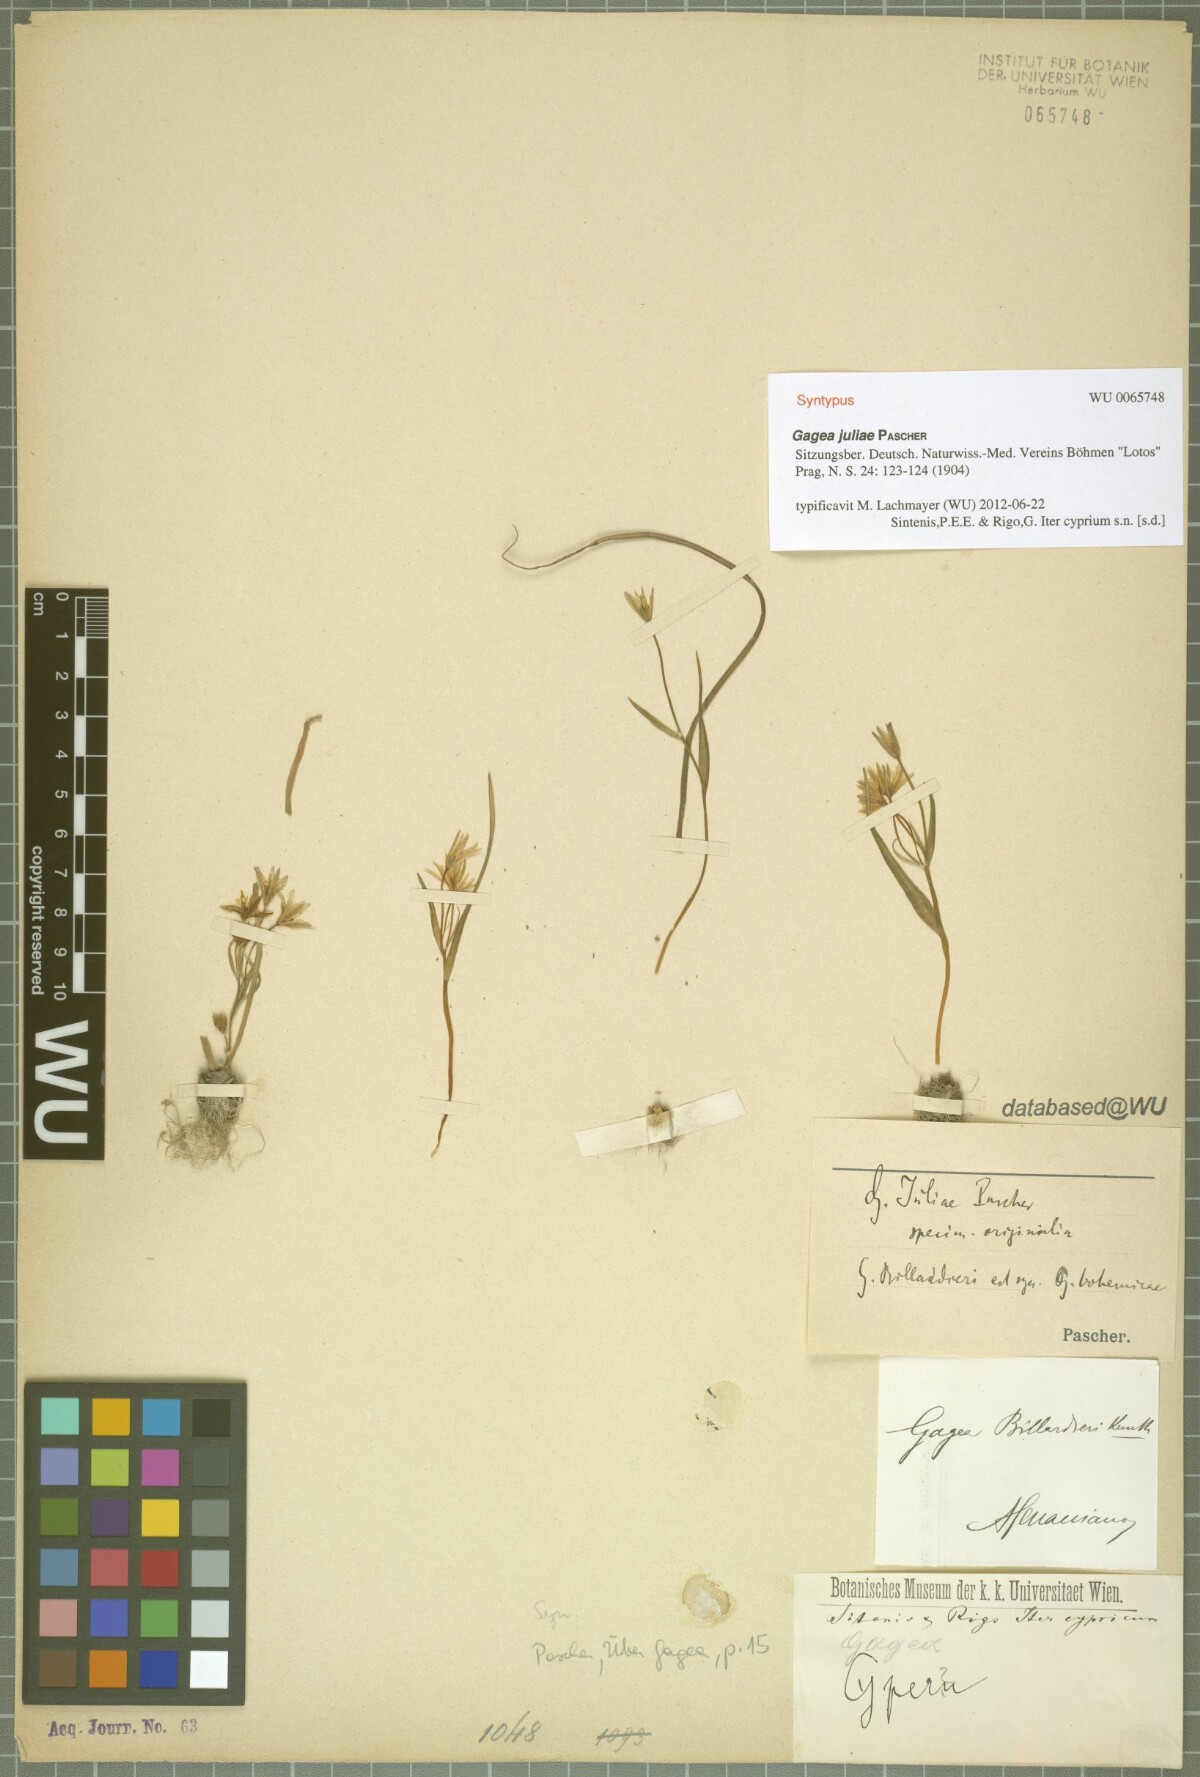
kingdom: Plantae
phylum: Tracheophyta
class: Liliopsida
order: Liliales
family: Liliaceae
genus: Gagea
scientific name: Gagea juliae
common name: Julia’s gagea
